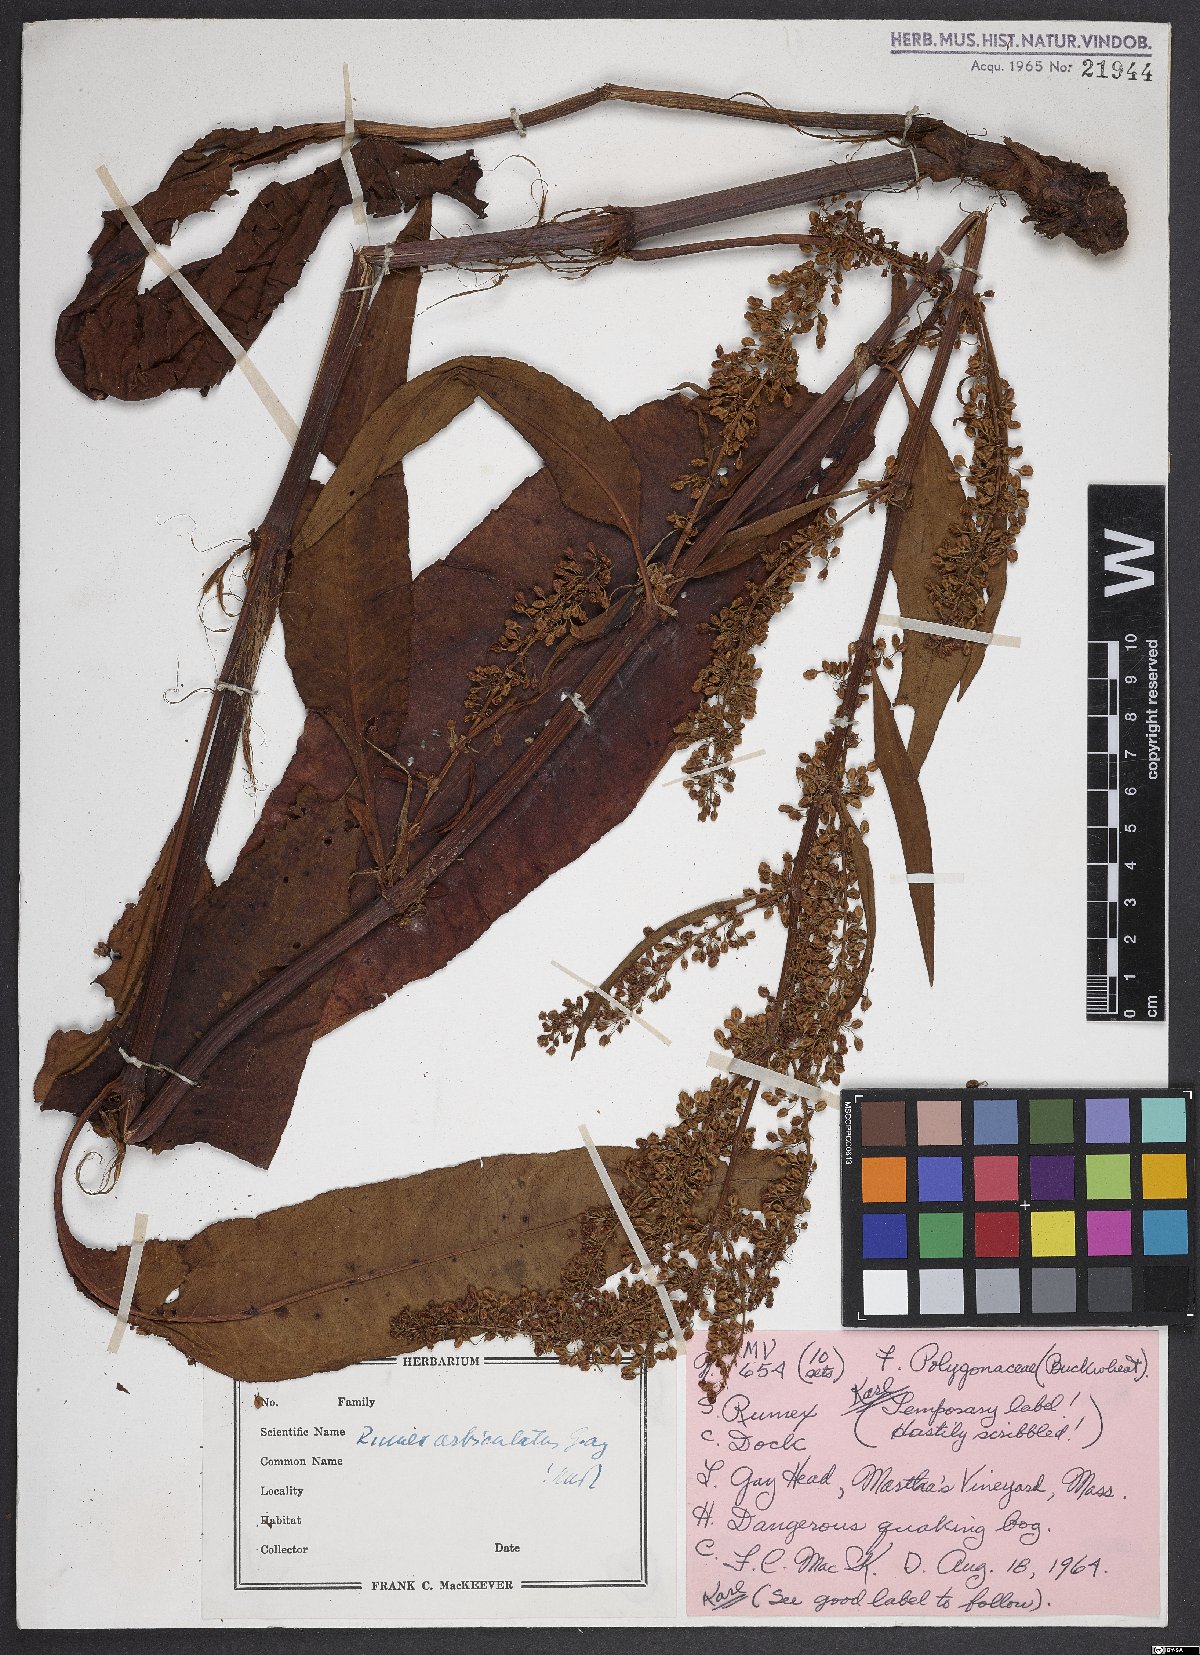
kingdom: Plantae
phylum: Tracheophyta
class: Magnoliopsida
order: Caryophyllales
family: Polygonaceae
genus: Rumex
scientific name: Rumex orbiculatus
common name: Greater water dock
